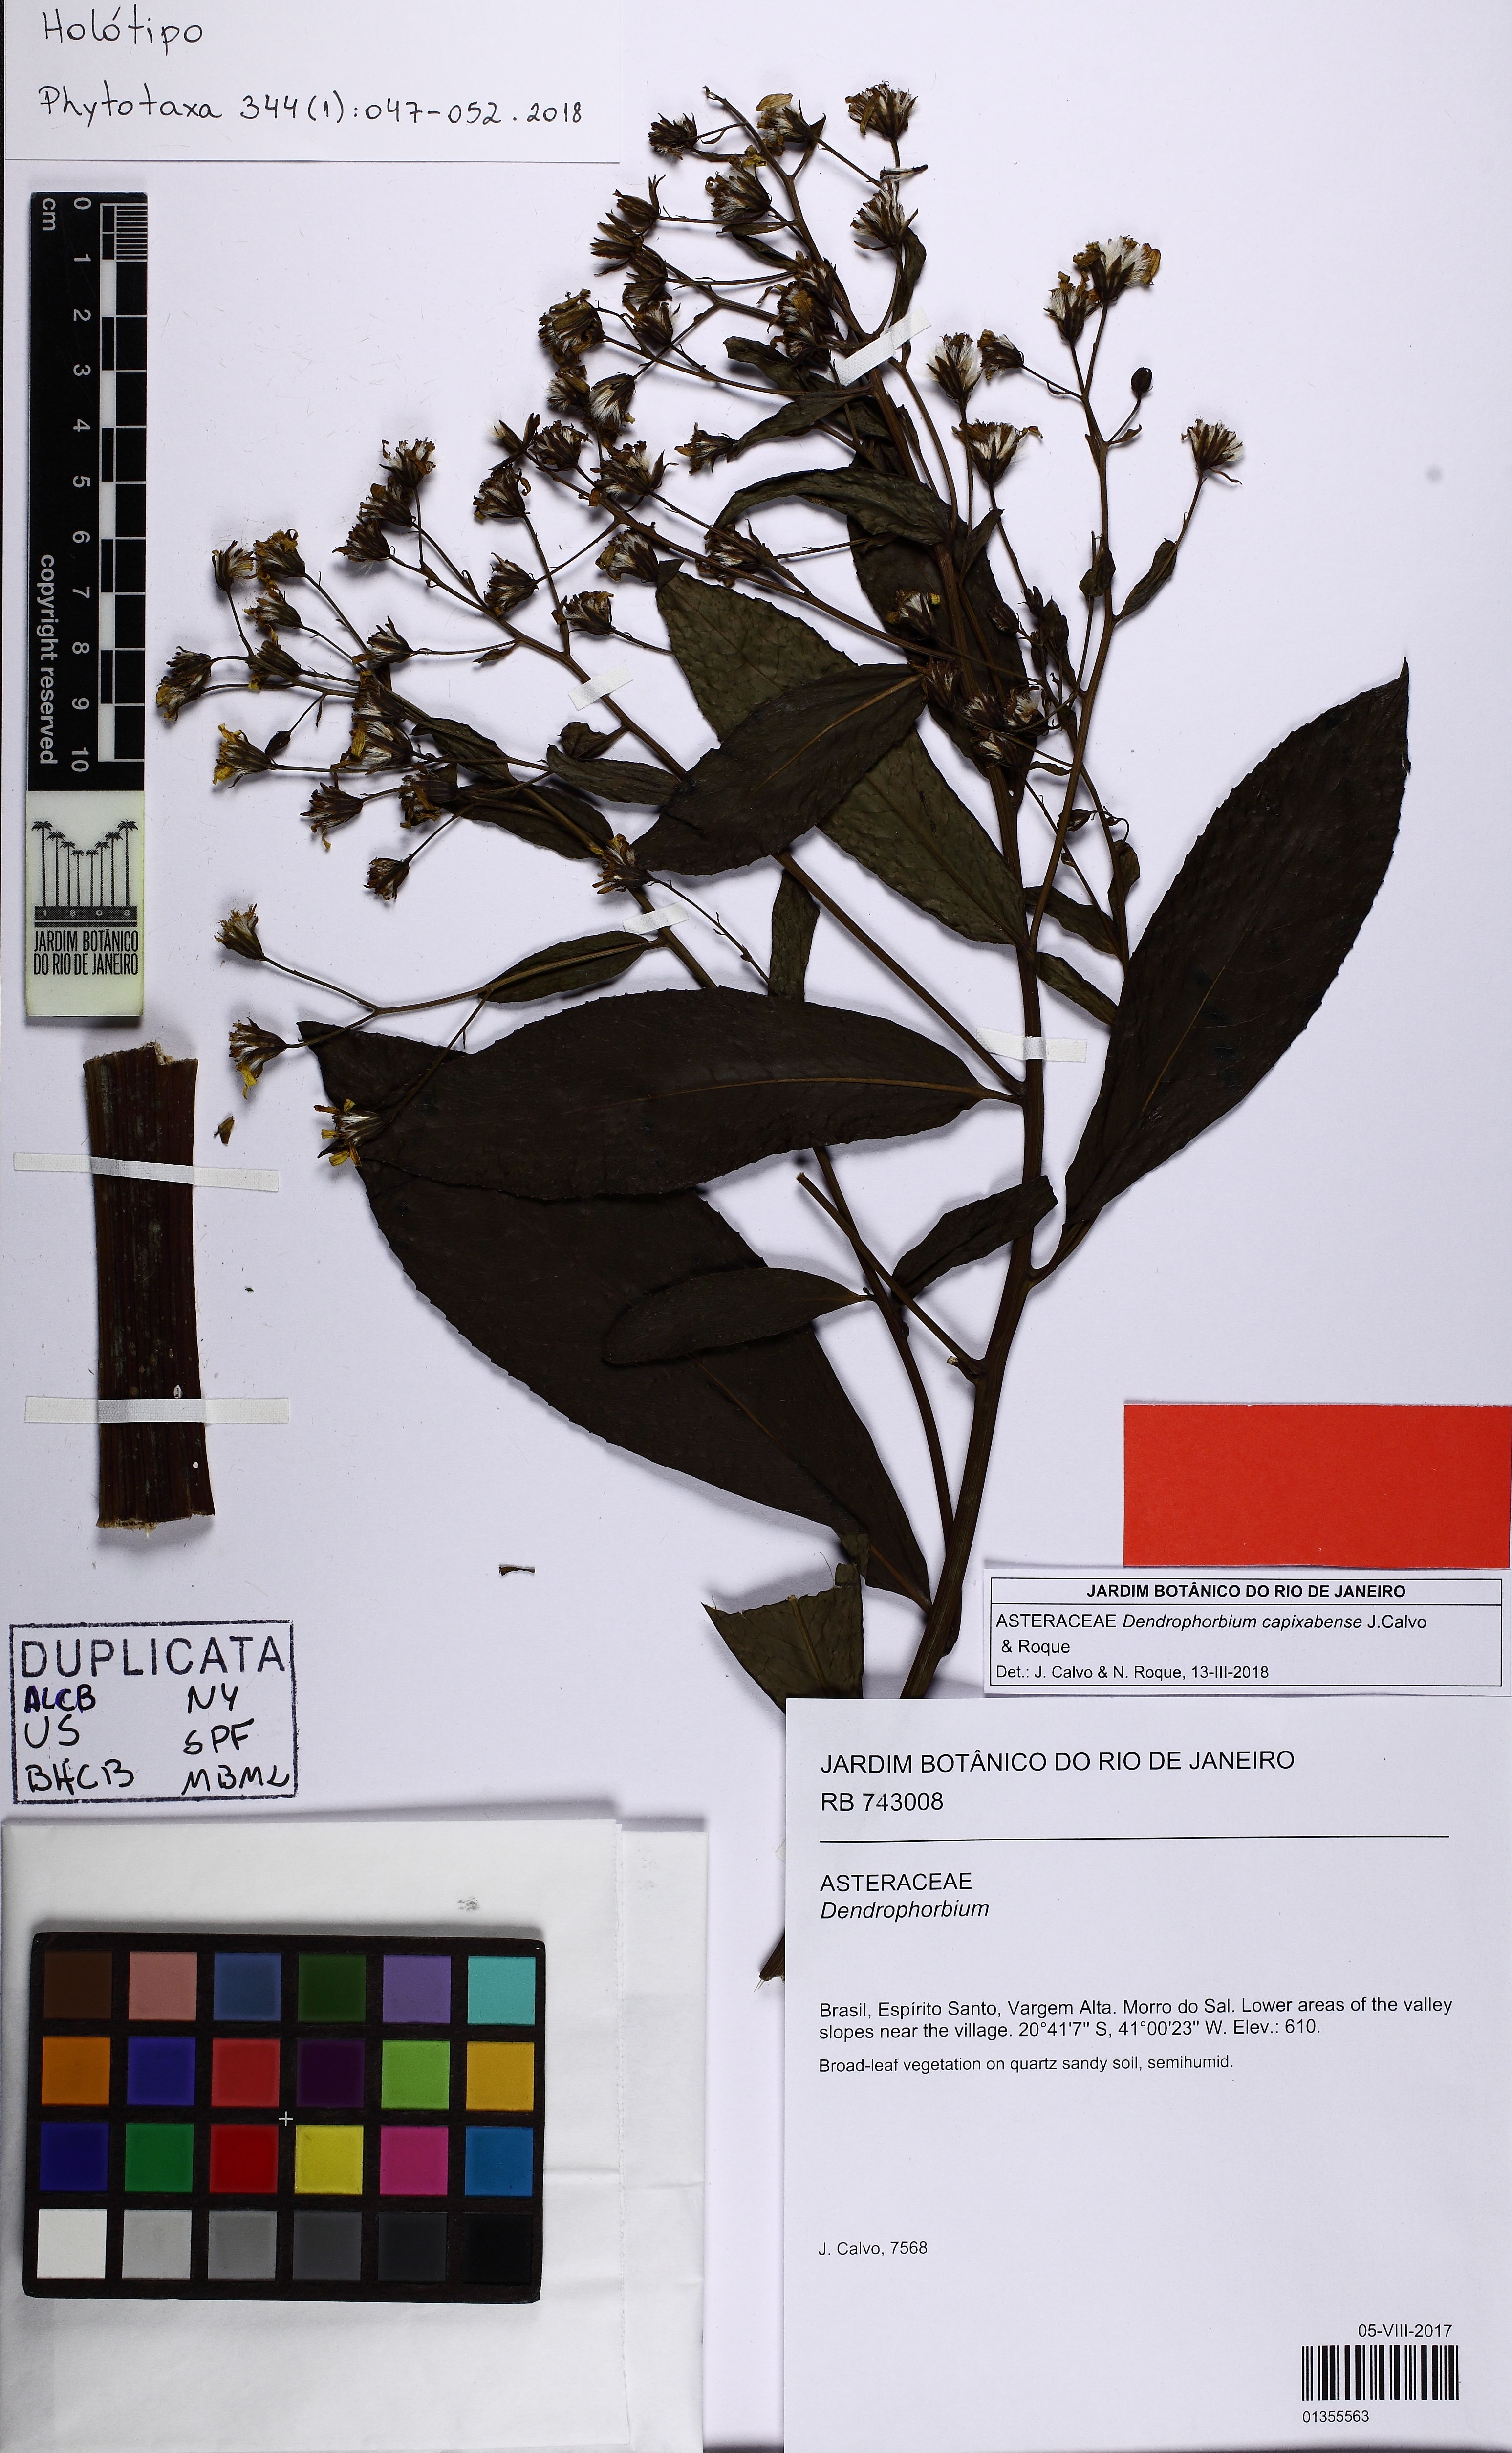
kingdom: Plantae
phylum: Tracheophyta
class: Magnoliopsida
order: Asterales
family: Asteraceae
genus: Dendrophorbium
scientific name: Dendrophorbium capixabense
